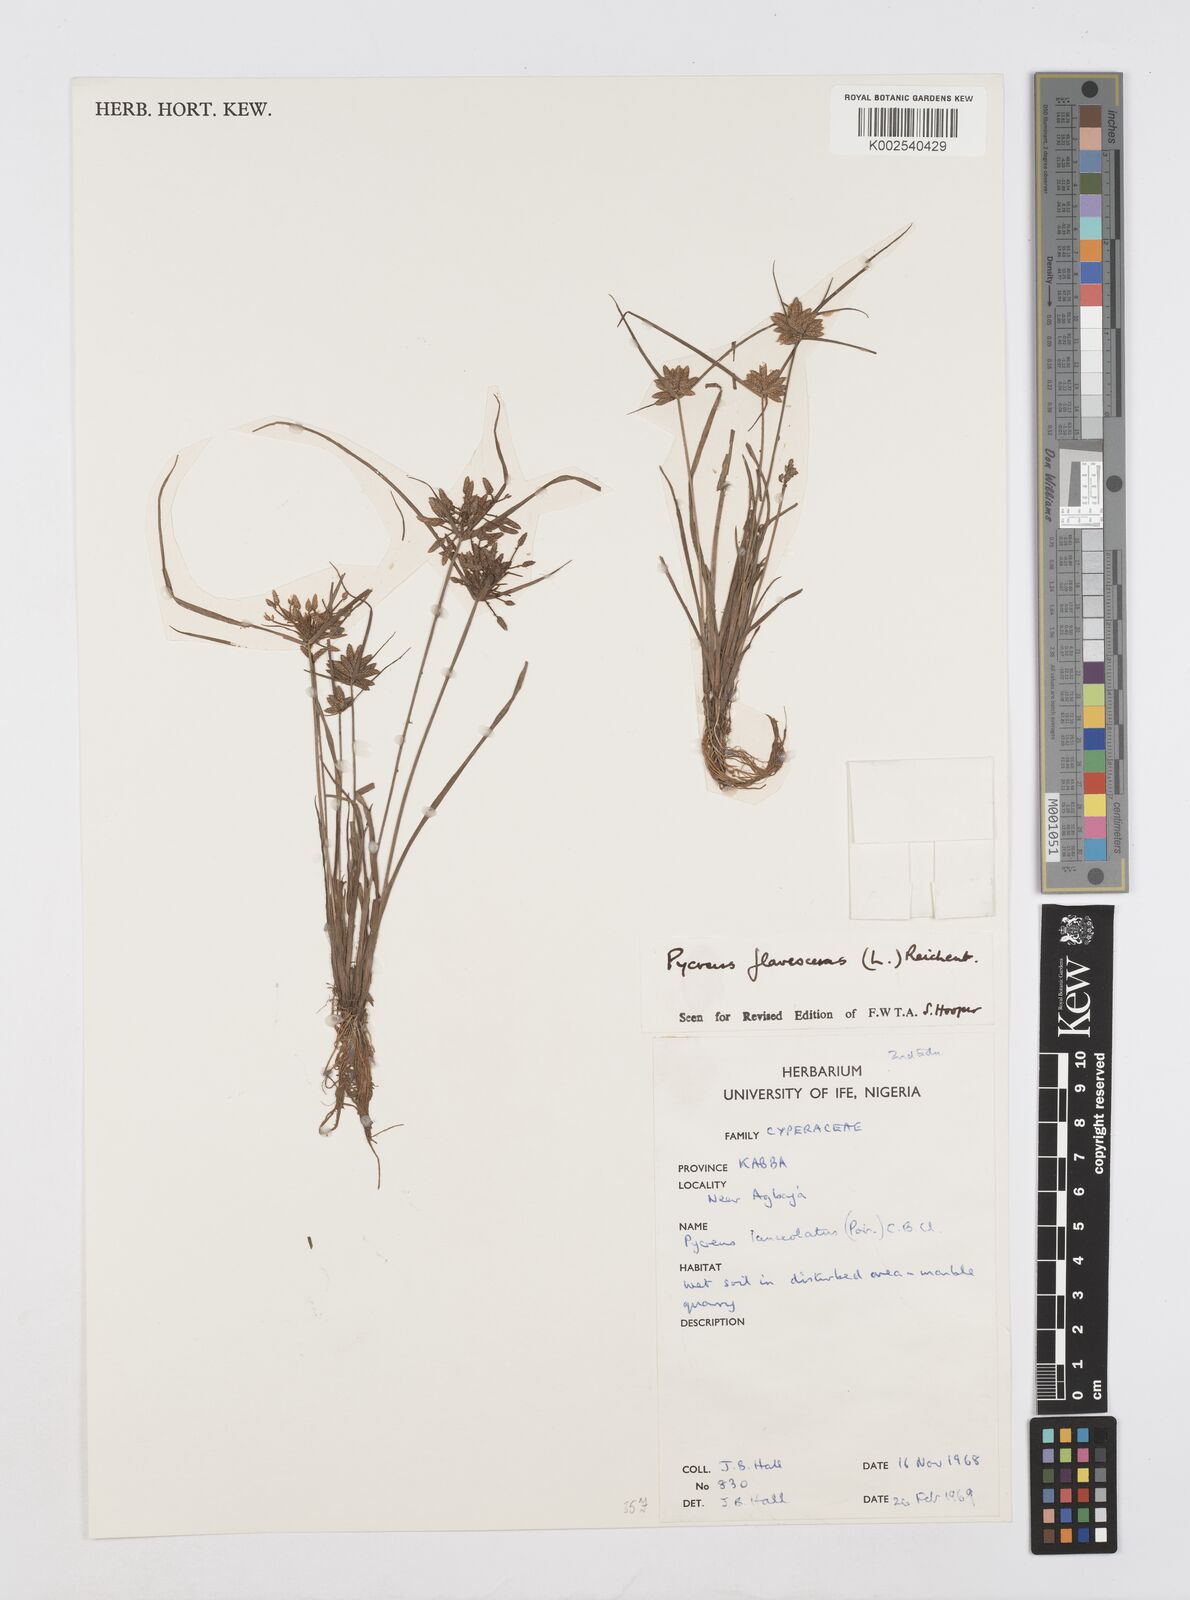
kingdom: Plantae
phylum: Tracheophyta
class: Liliopsida
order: Poales
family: Cyperaceae
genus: Cyperus
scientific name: Cyperus flavescens
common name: Yellow galingale
